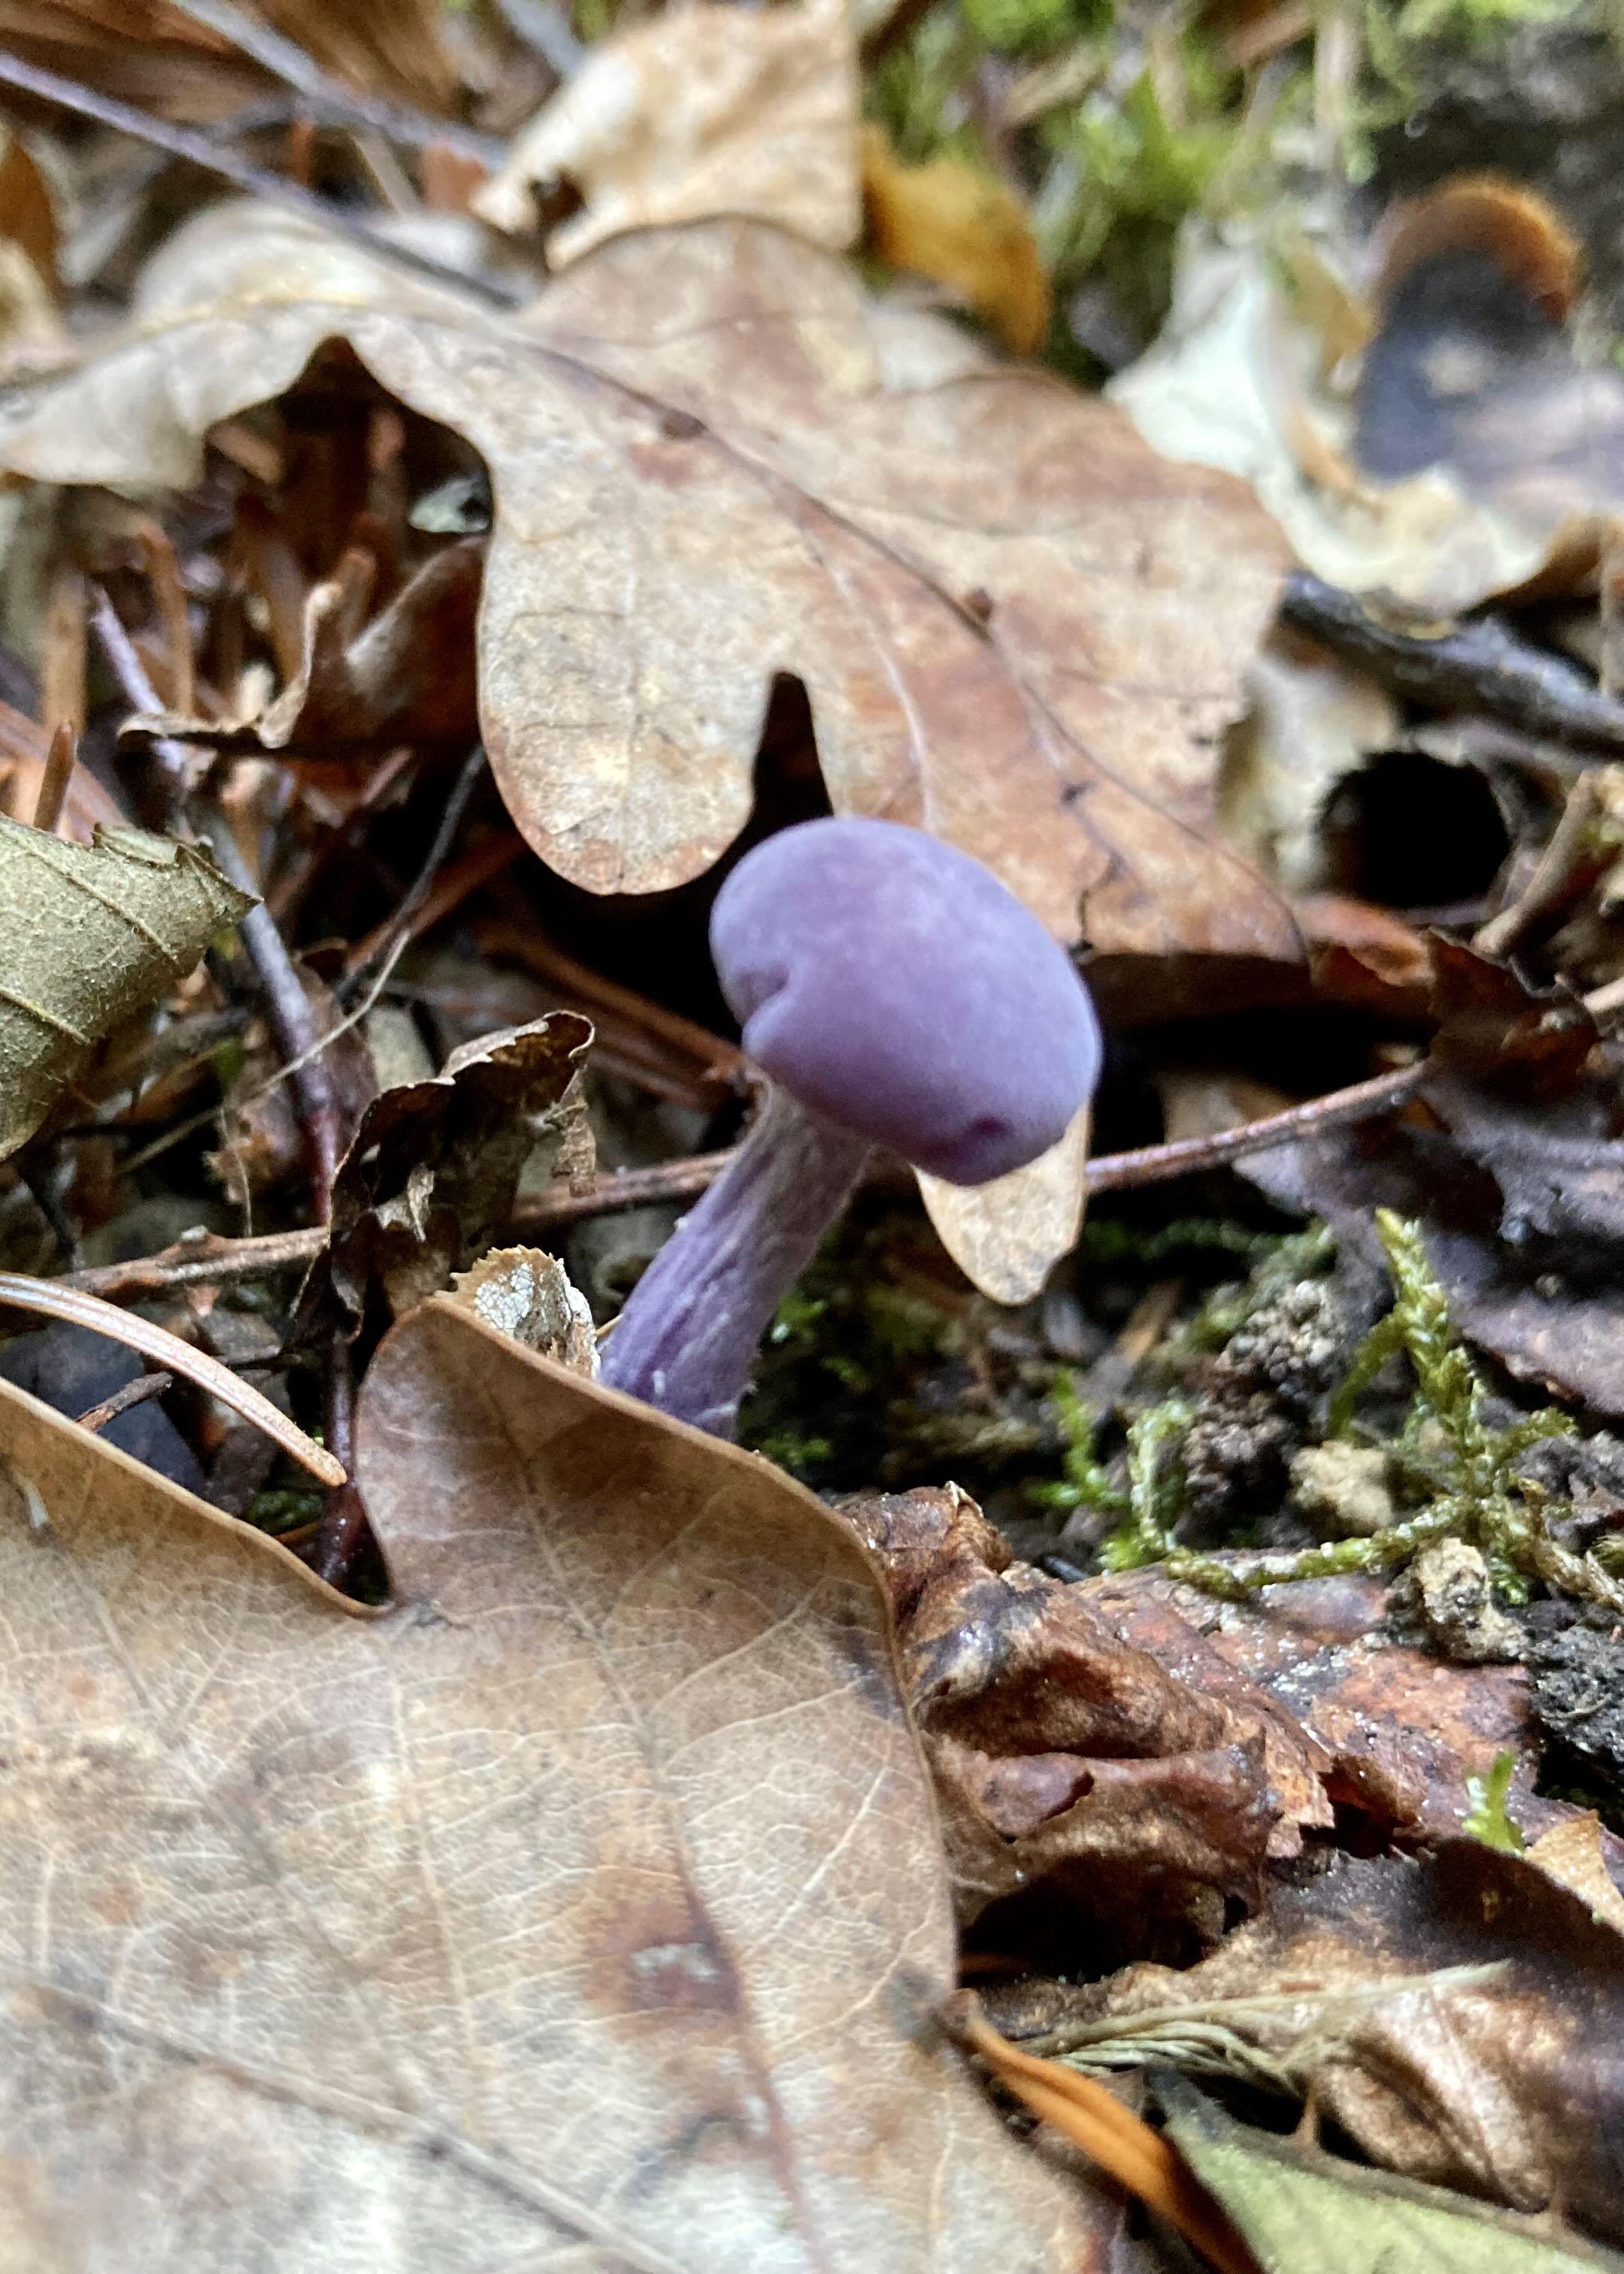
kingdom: Fungi
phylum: Basidiomycota
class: Agaricomycetes
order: Agaricales
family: Hydnangiaceae
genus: Laccaria
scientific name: Laccaria amethystina
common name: violet ametysthat
